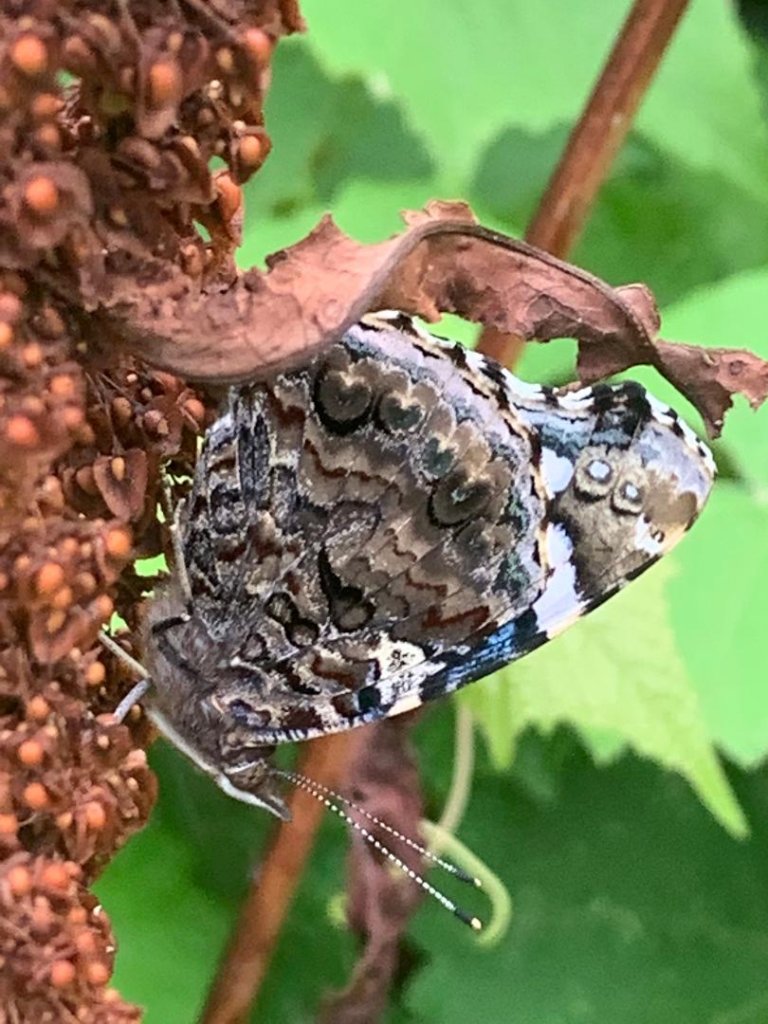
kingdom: Animalia
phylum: Arthropoda
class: Insecta
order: Lepidoptera
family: Nymphalidae
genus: Vanessa
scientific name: Vanessa atalanta
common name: Red Admiral
